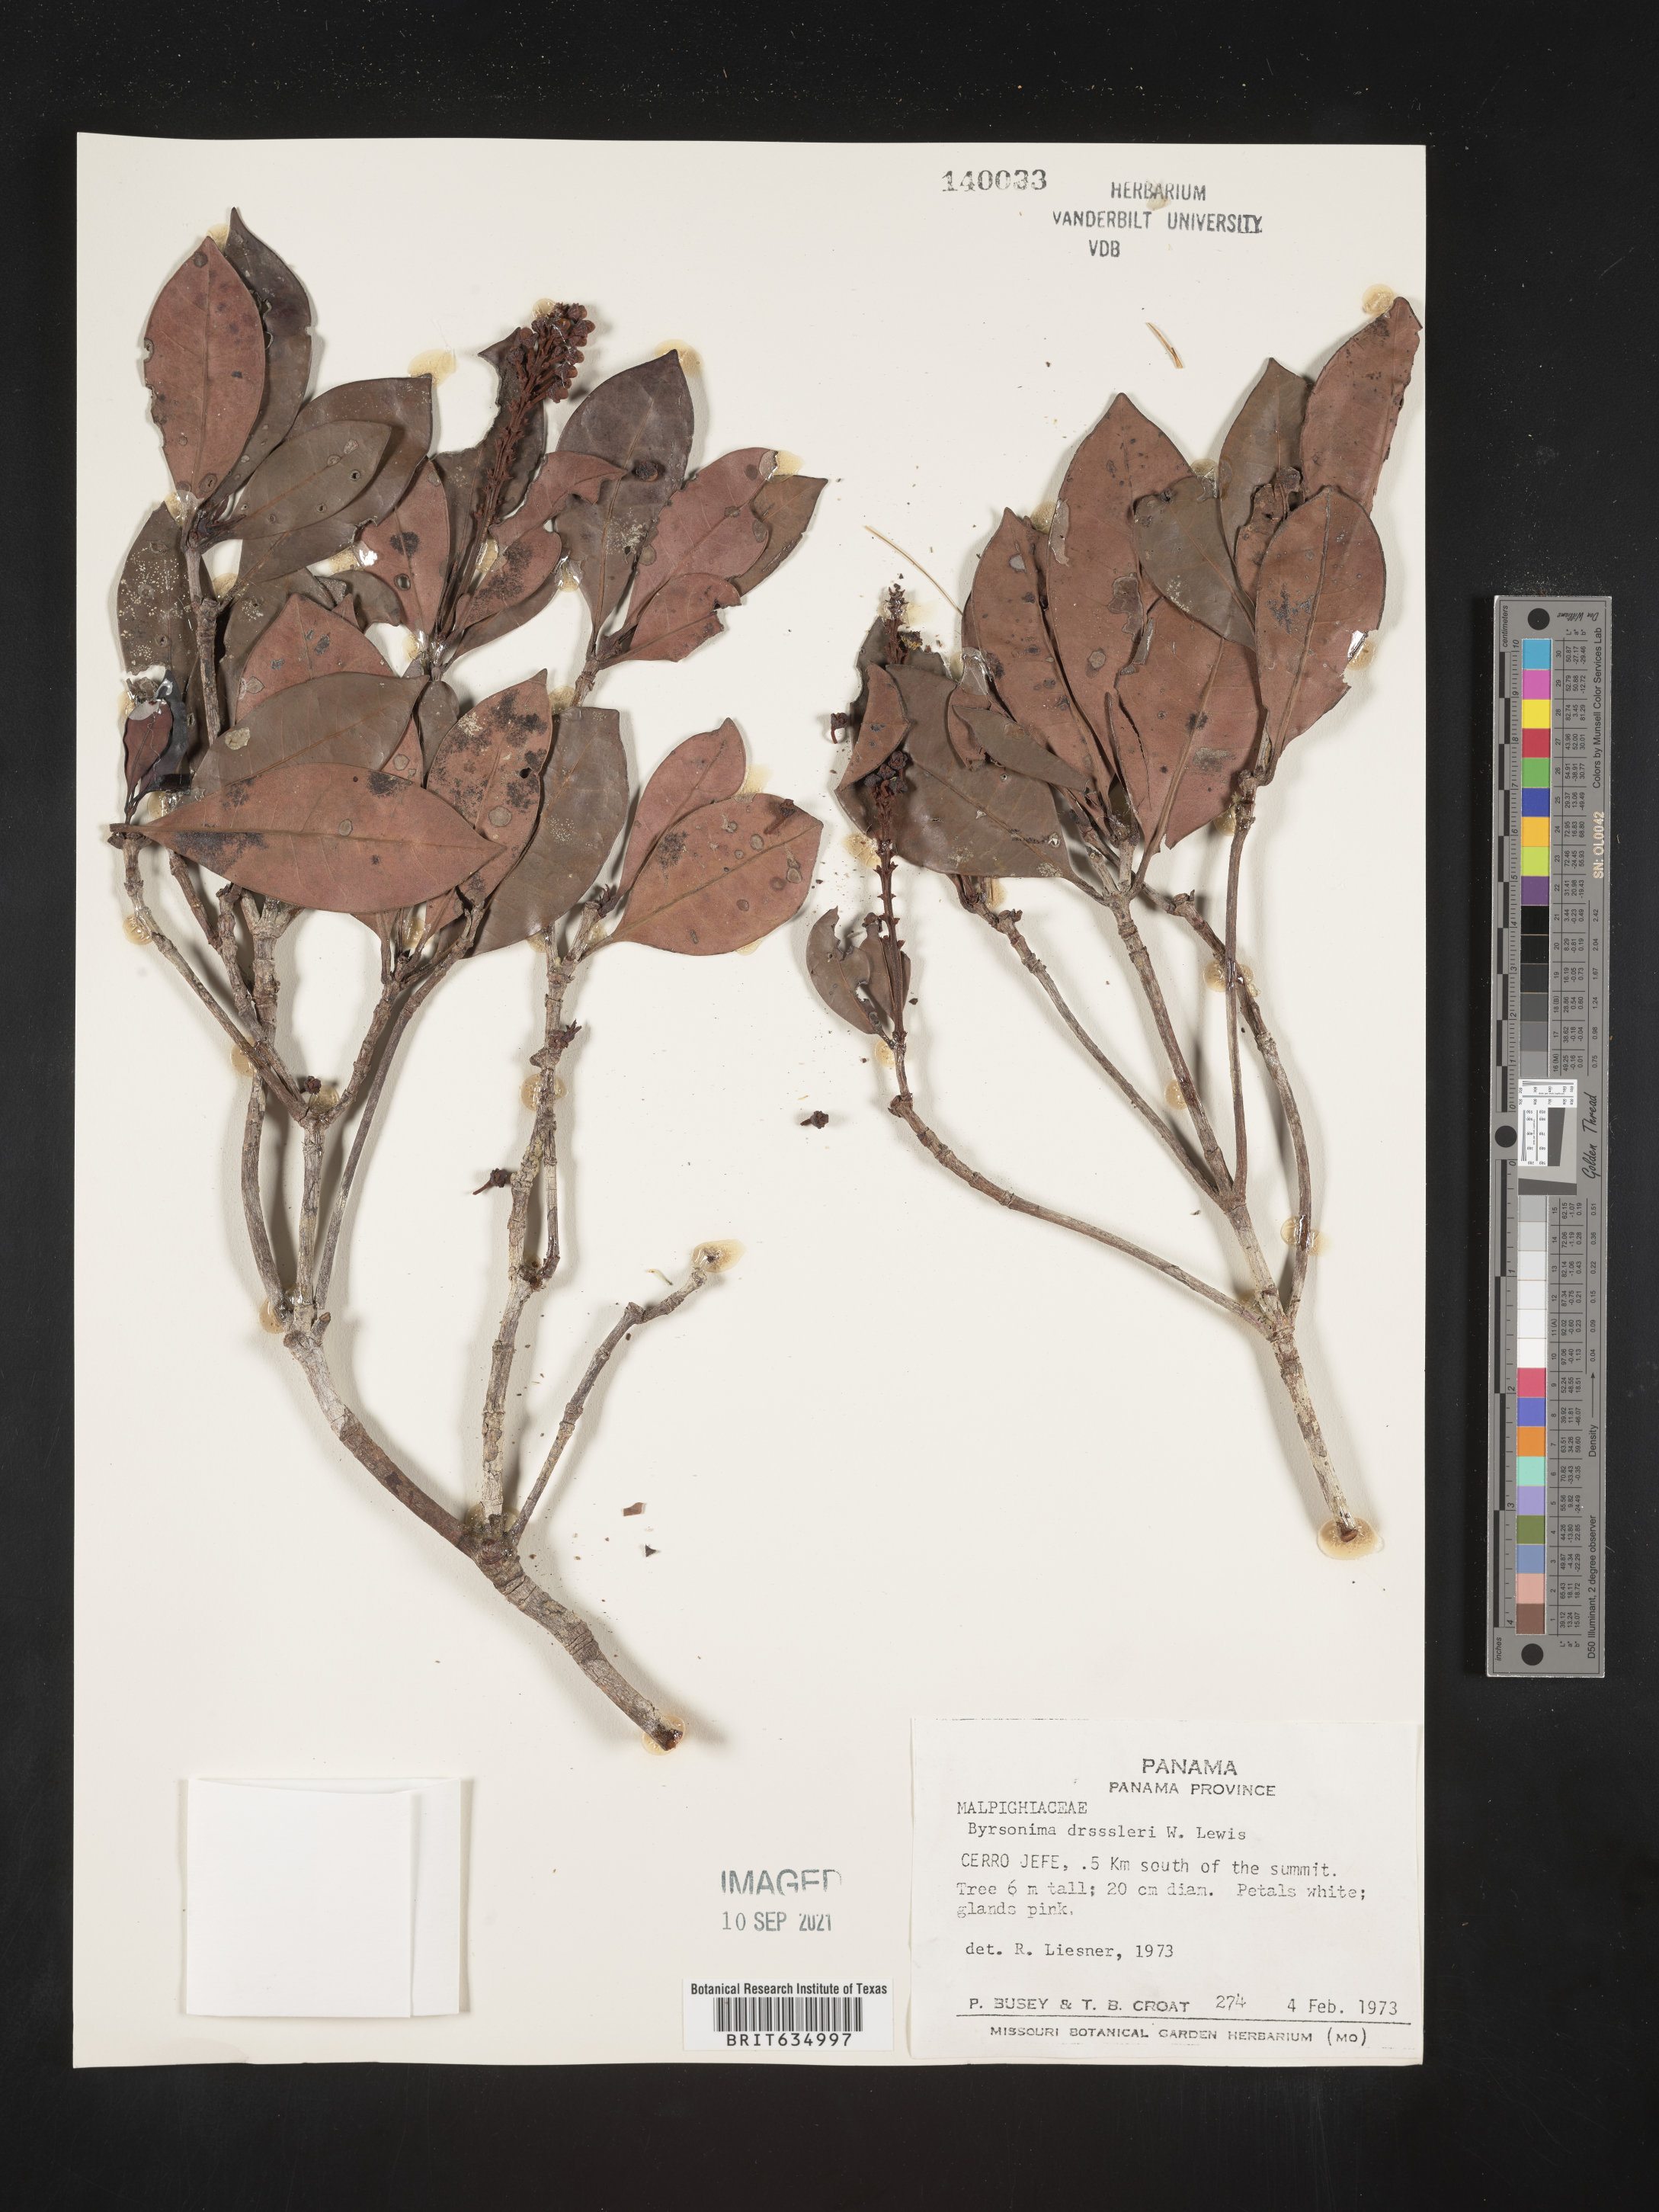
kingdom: Plantae
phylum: Tracheophyta
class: Magnoliopsida
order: Malpighiales
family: Malpighiaceae
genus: Byrsonima
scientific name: Byrsonima
